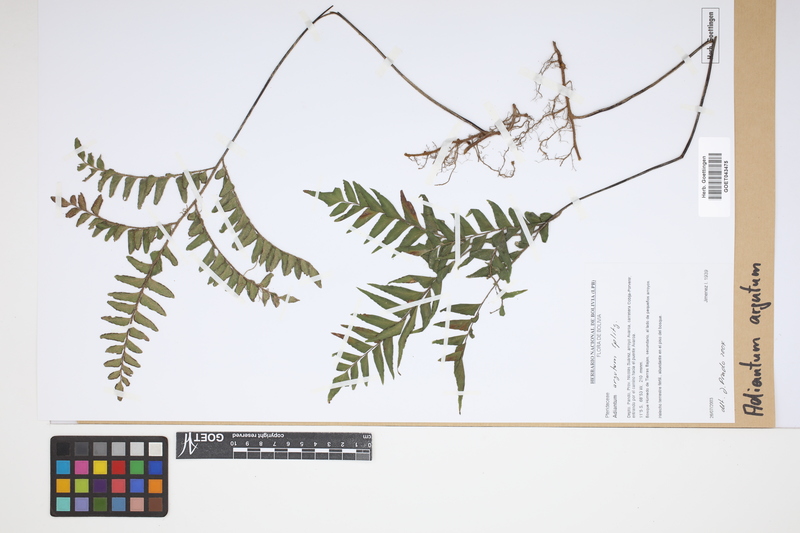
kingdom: Plantae
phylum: Tracheophyta
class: Polypodiopsida
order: Polypodiales
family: Pteridaceae
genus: Adiantum
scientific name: Adiantum argutum
